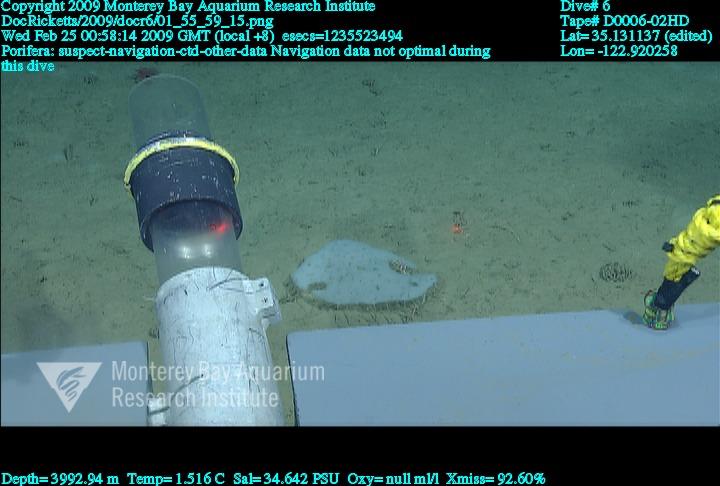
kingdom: Animalia
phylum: Porifera
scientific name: Porifera
